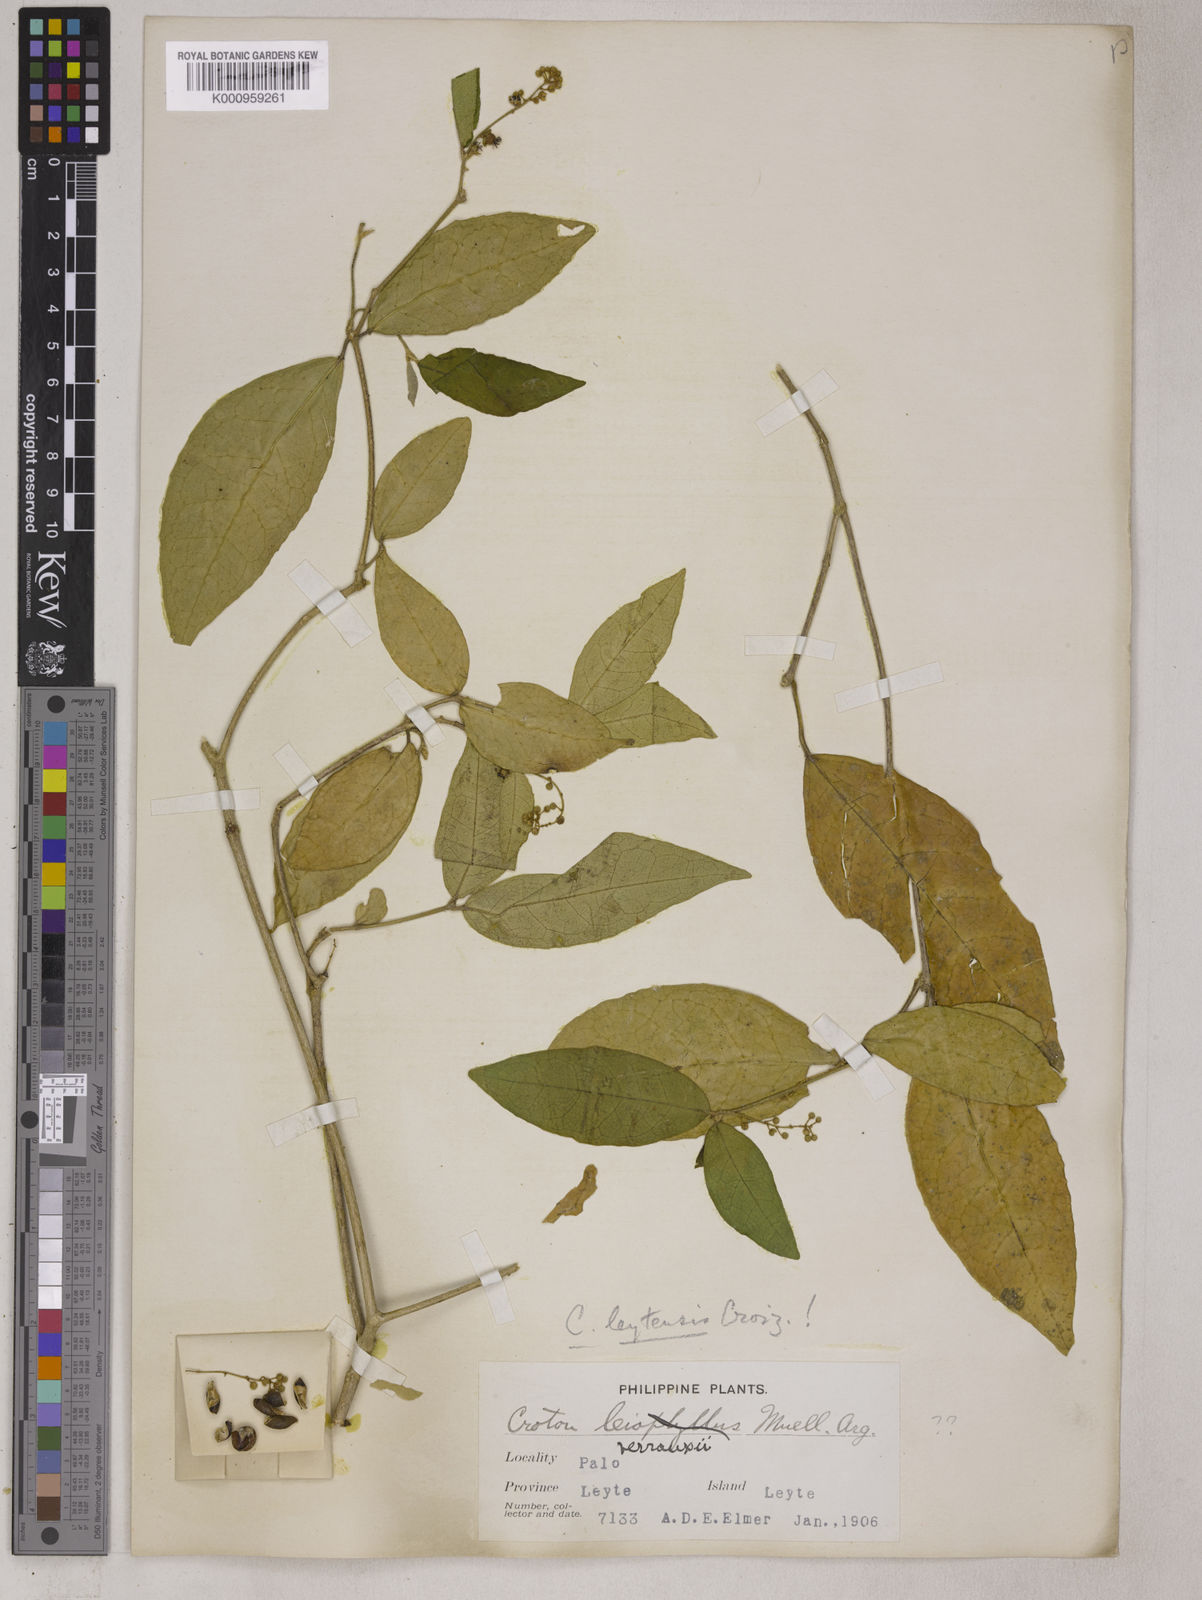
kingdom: Plantae
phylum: Tracheophyta
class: Magnoliopsida
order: Malpighiales
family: Euphorbiaceae
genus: Croton
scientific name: Croton leytensis
